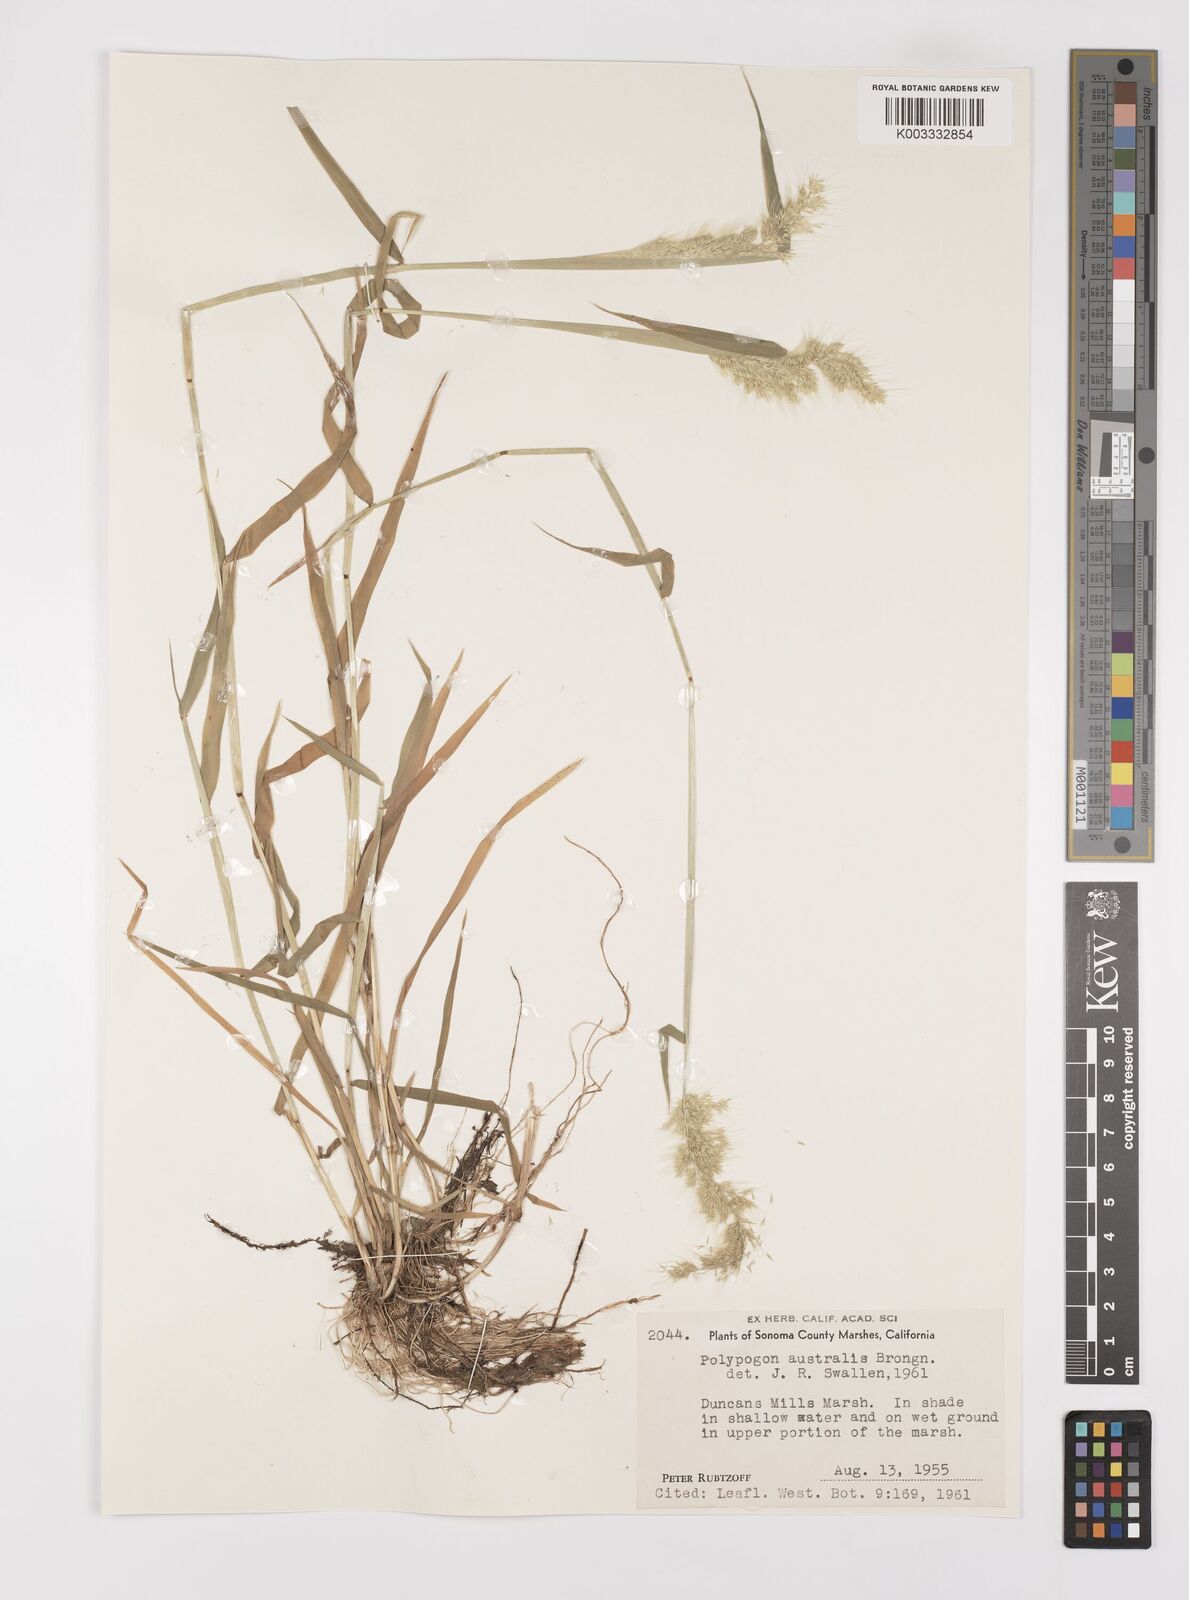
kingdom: Plantae
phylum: Tracheophyta
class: Liliopsida
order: Poales
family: Poaceae
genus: Polypogon
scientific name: Polypogon australis
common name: Chilean rabbitsfoot grass
